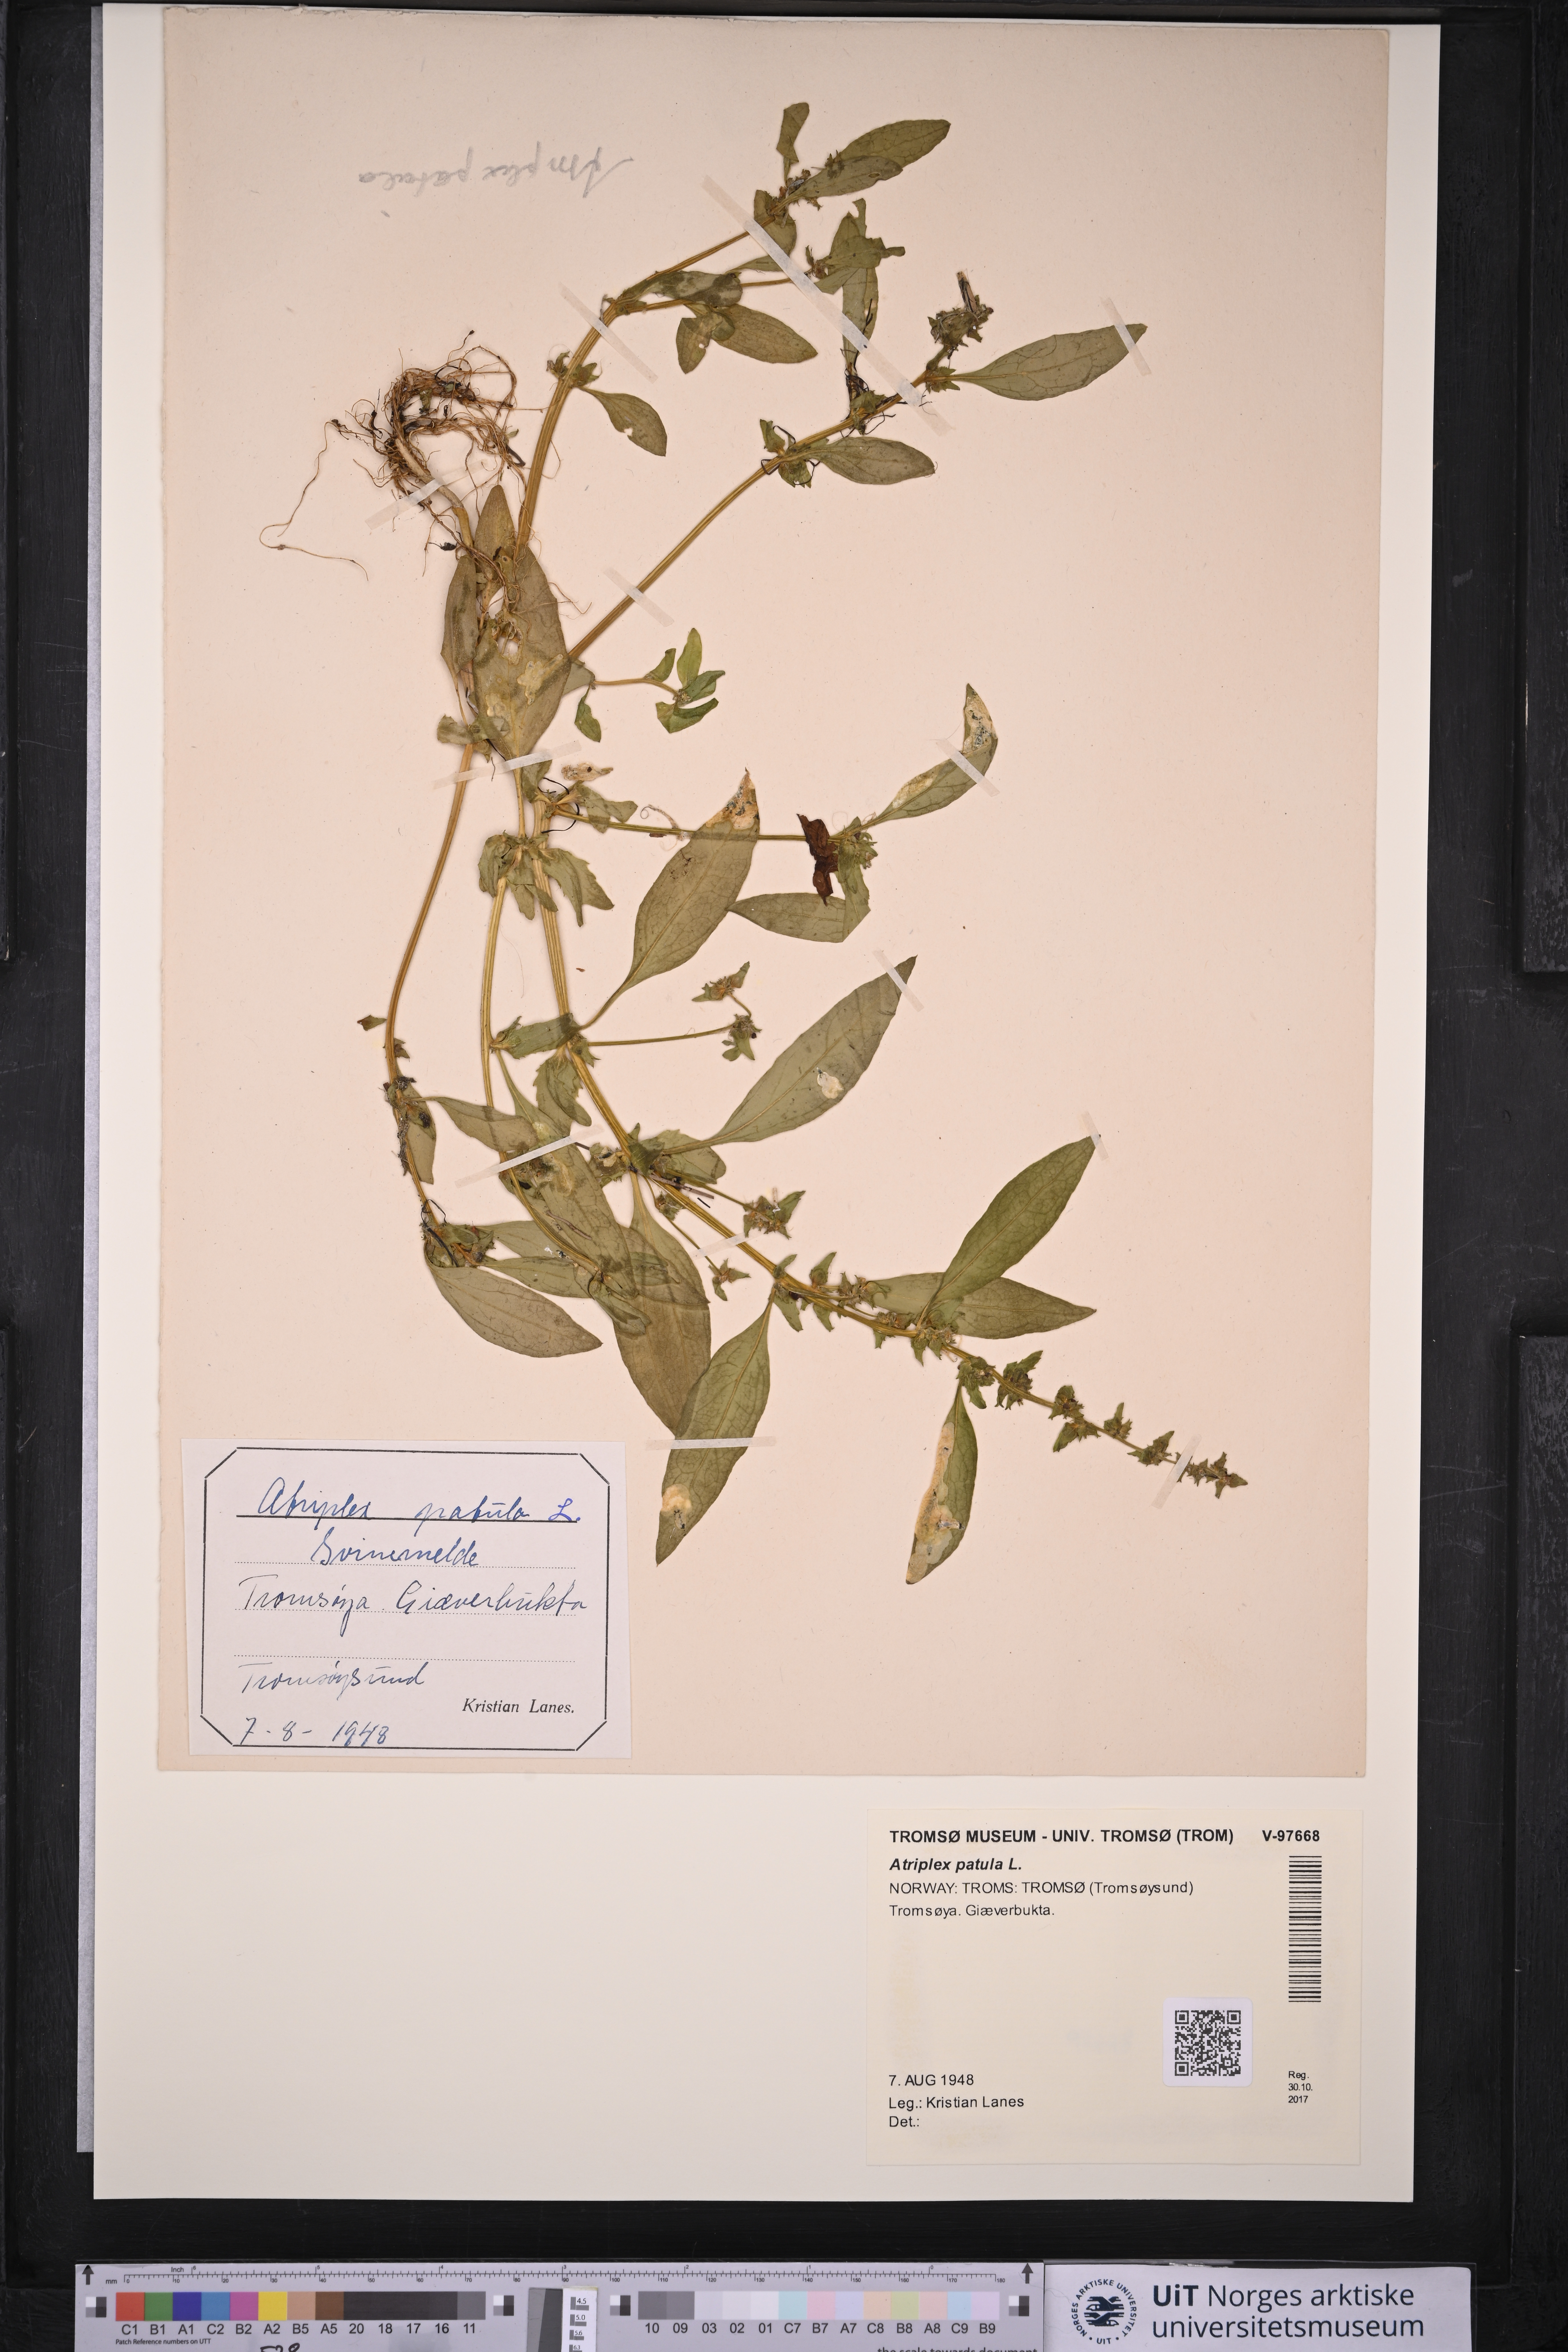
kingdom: Plantae
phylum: Tracheophyta
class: Magnoliopsida
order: Caryophyllales
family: Amaranthaceae
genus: Atriplex
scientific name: Atriplex patula
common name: Common orache
